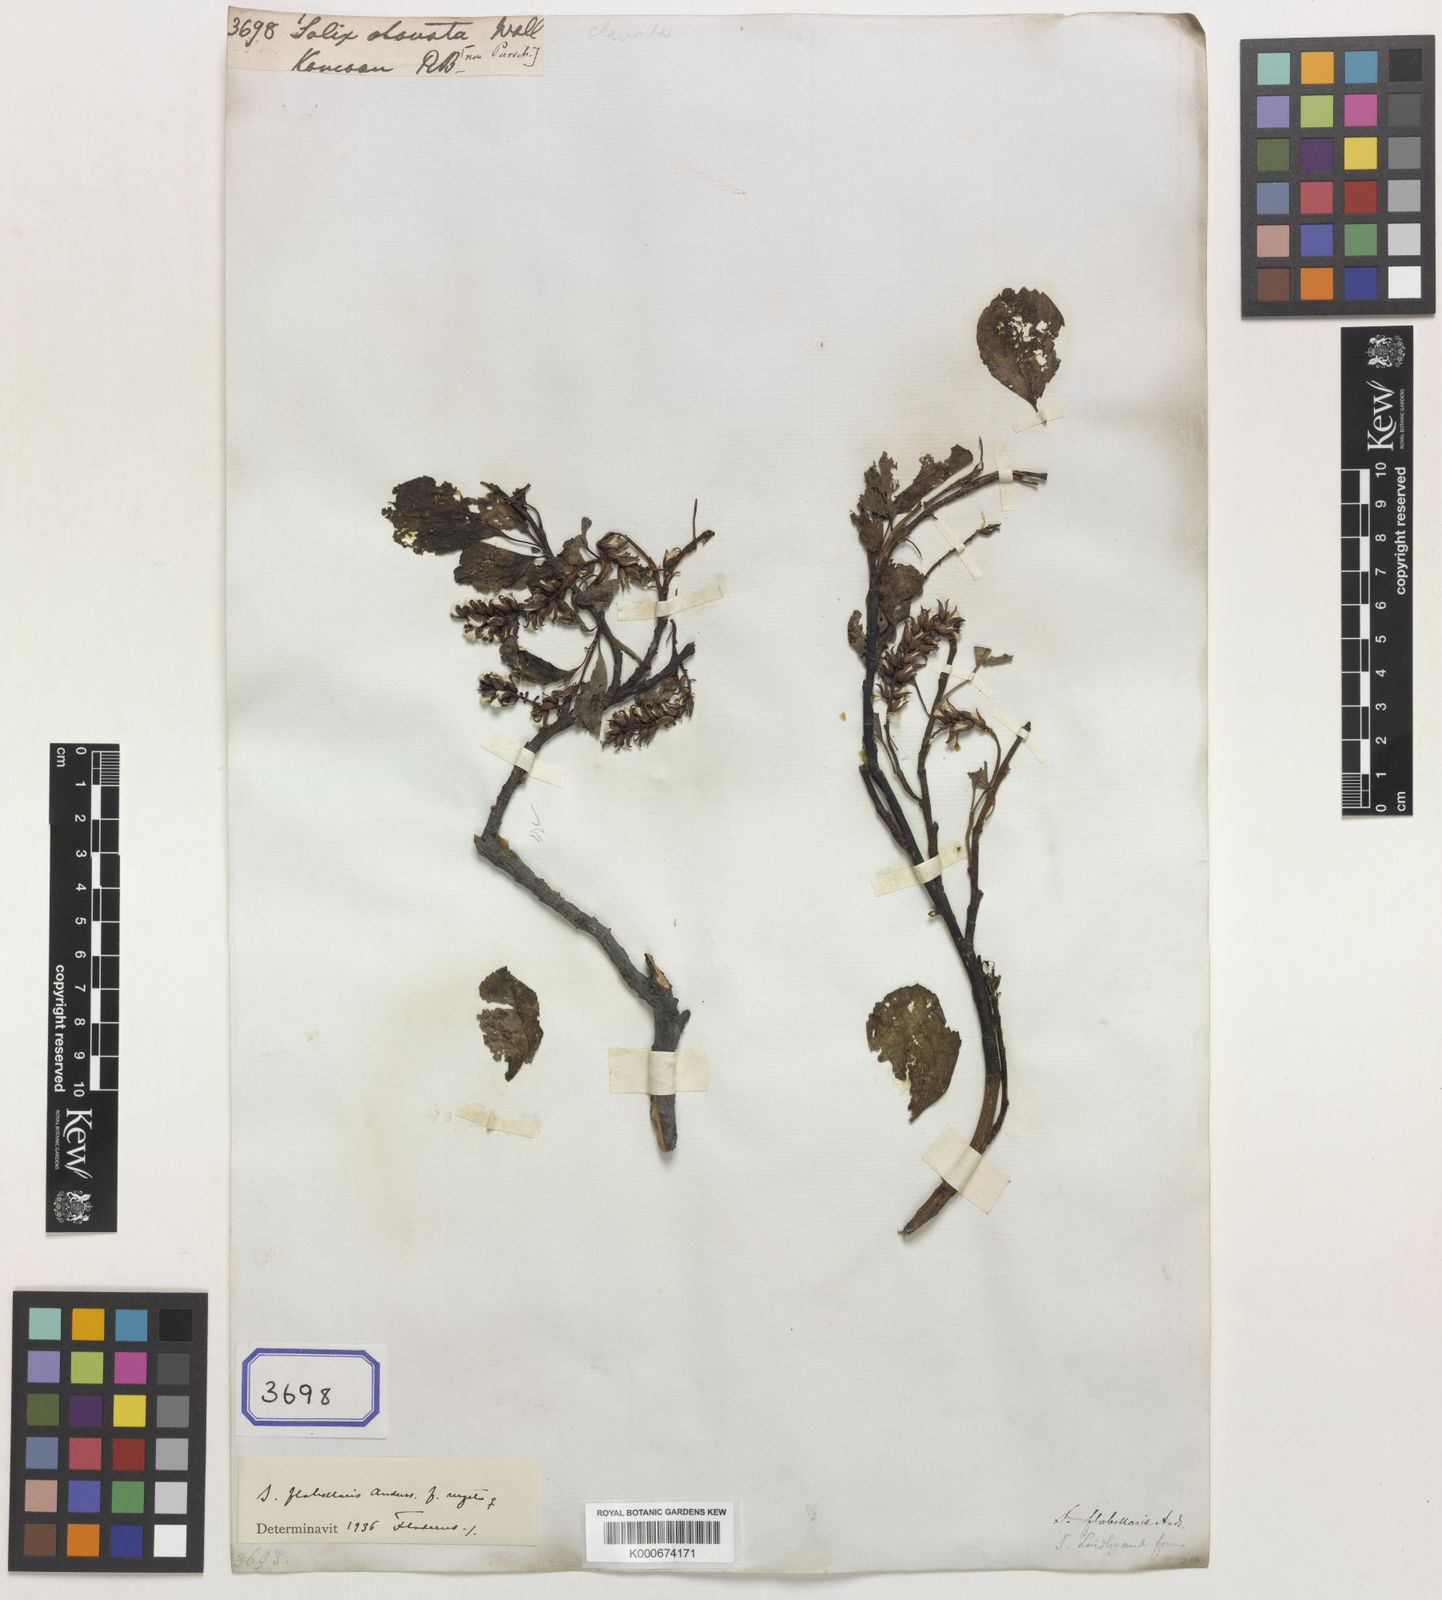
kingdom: Plantae
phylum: Tracheophyta
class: Magnoliopsida
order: Malpighiales
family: Salicaceae
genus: Salix
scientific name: Salix flabellaris
